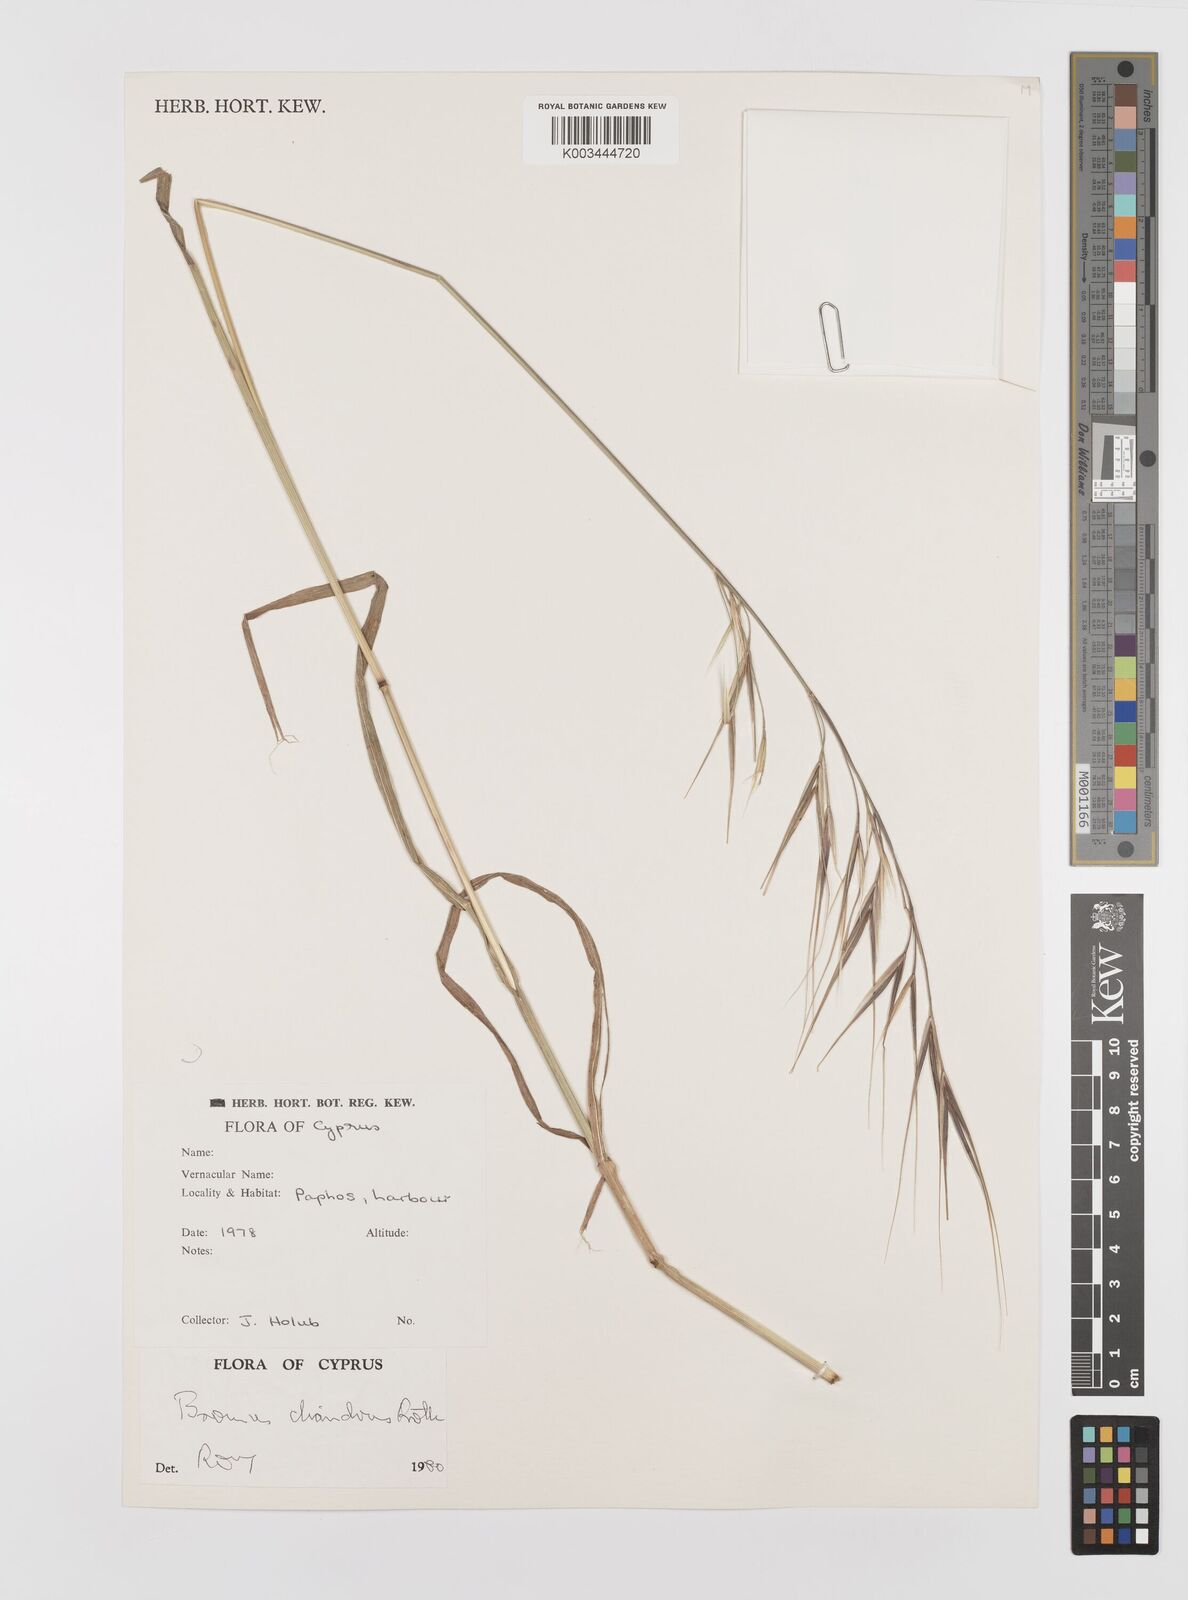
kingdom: Plantae
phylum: Tracheophyta
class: Liliopsida
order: Poales
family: Poaceae
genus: Bromus
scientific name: Bromus diandrus
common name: Ripgut brome
